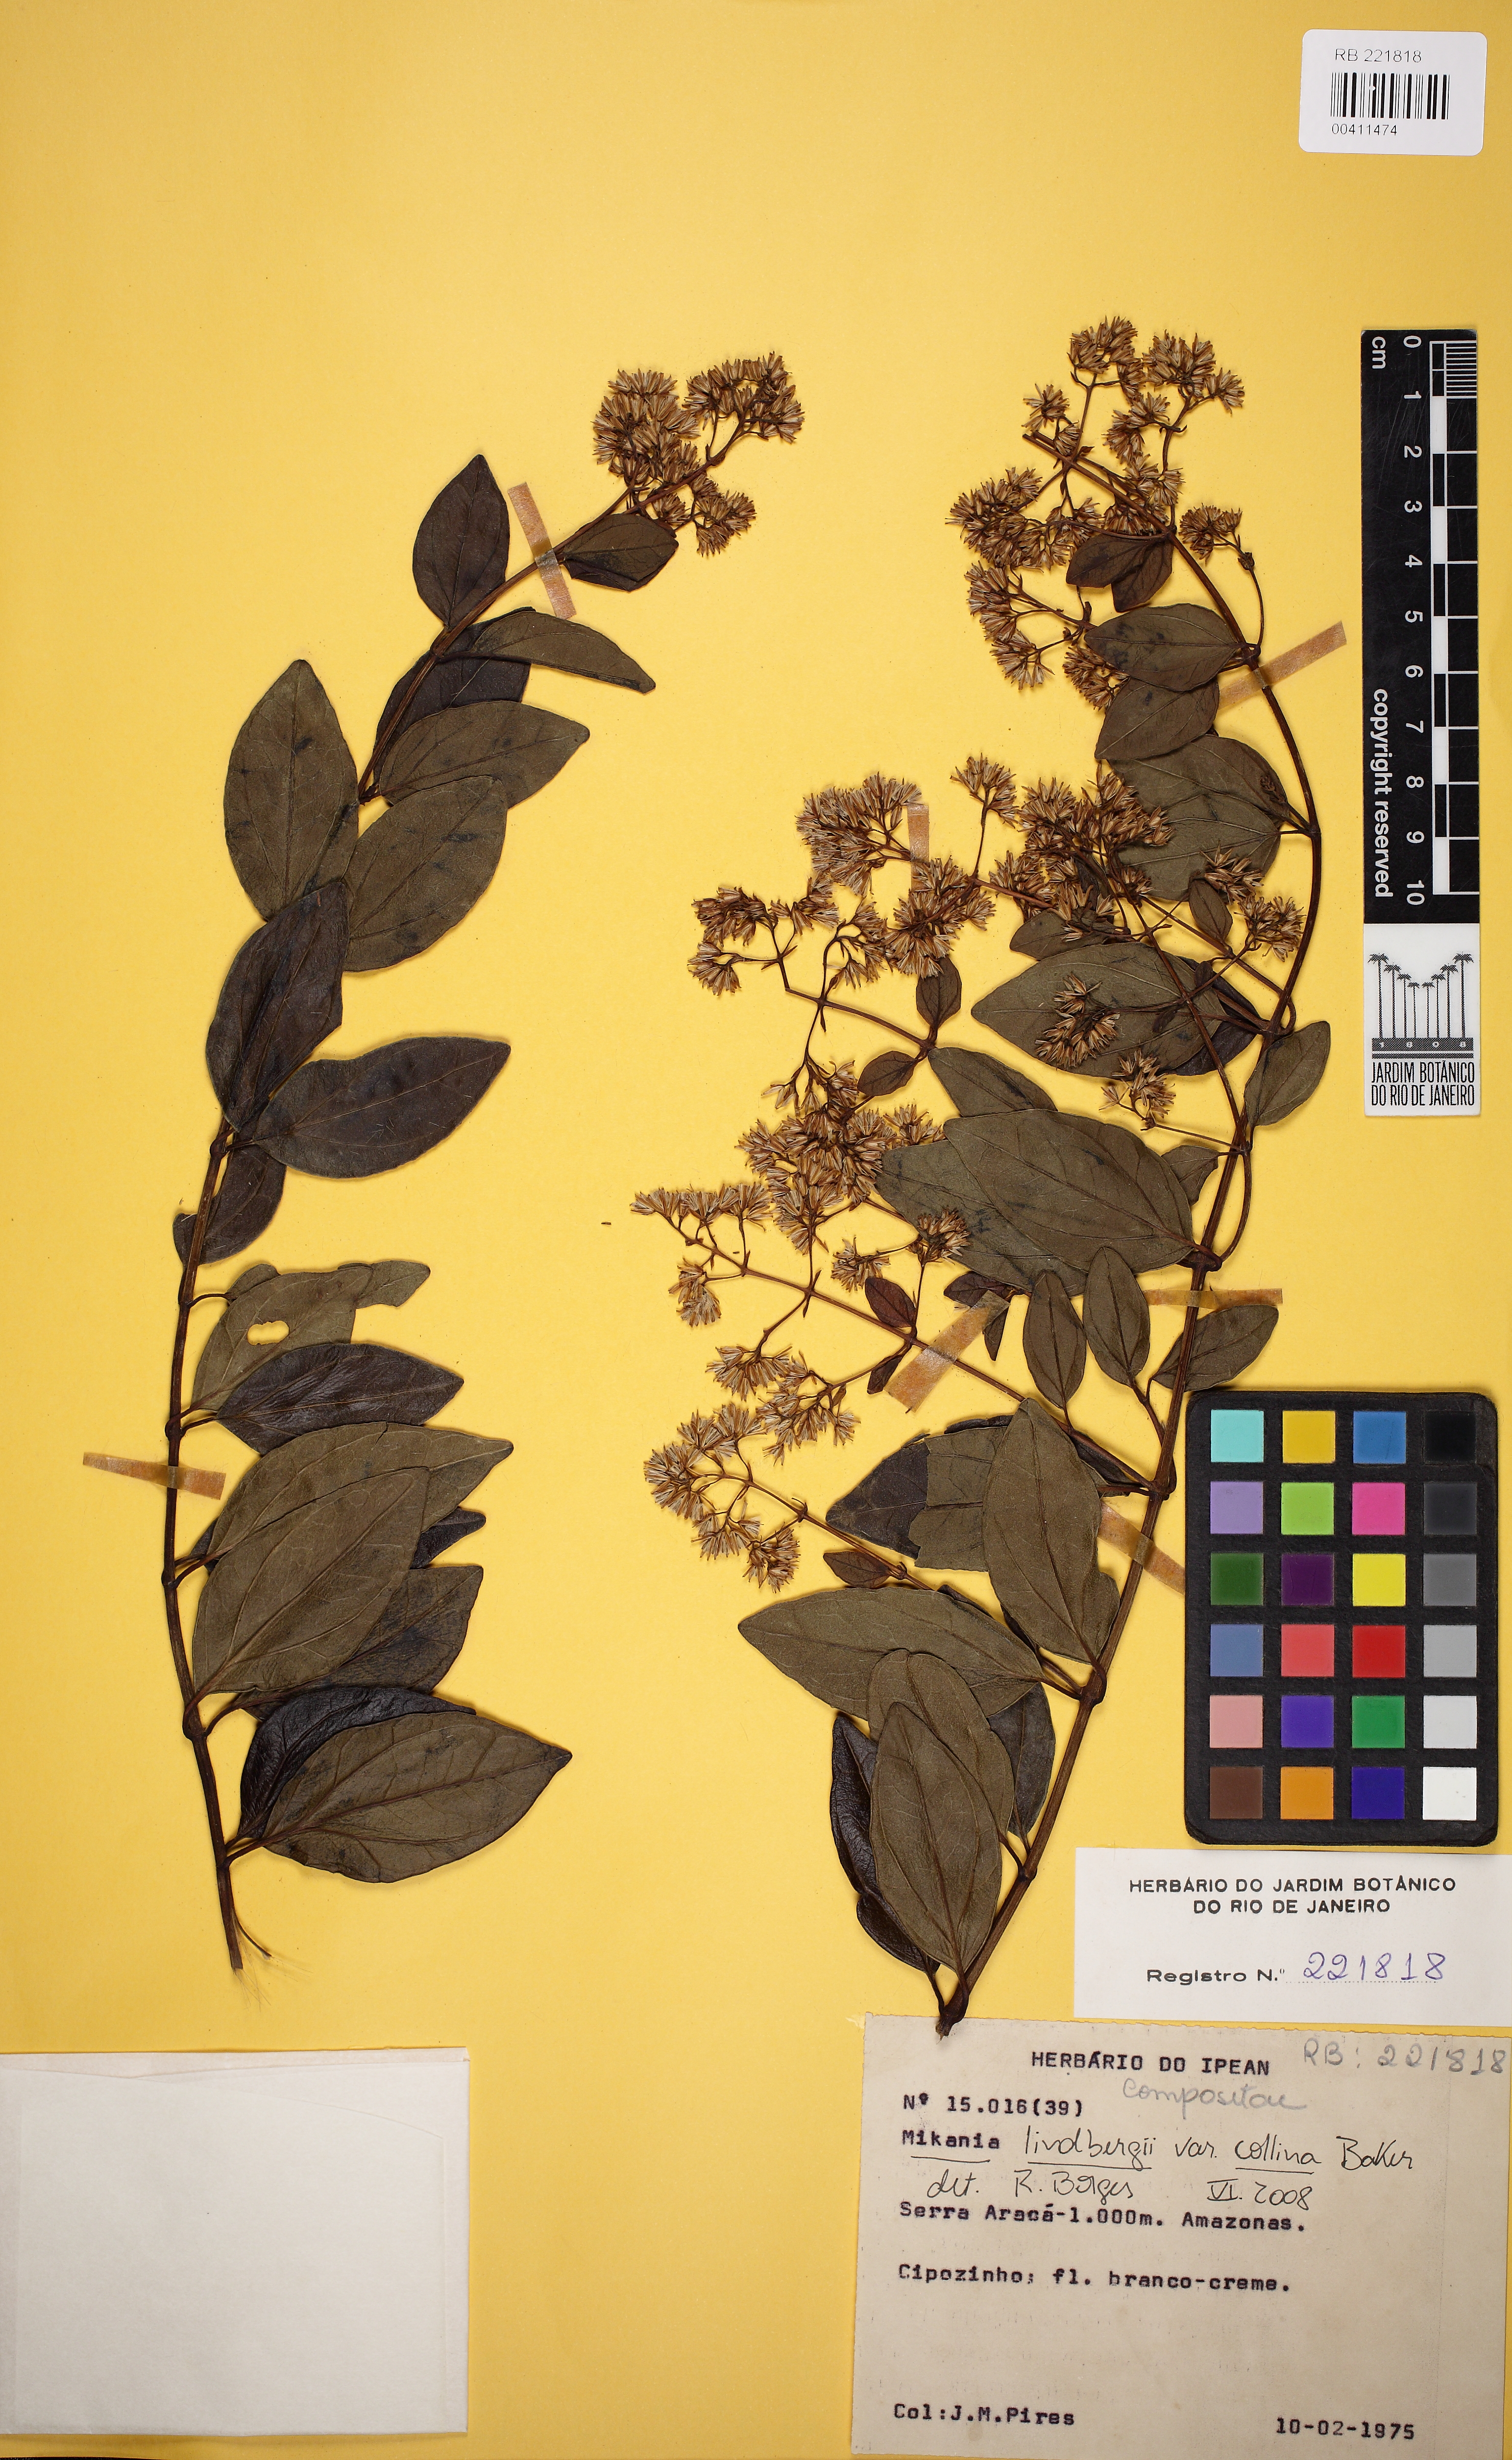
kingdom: Plantae
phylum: Tracheophyta
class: Magnoliopsida
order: Asterales
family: Asteraceae
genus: Mikania
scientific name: Mikania lucida
